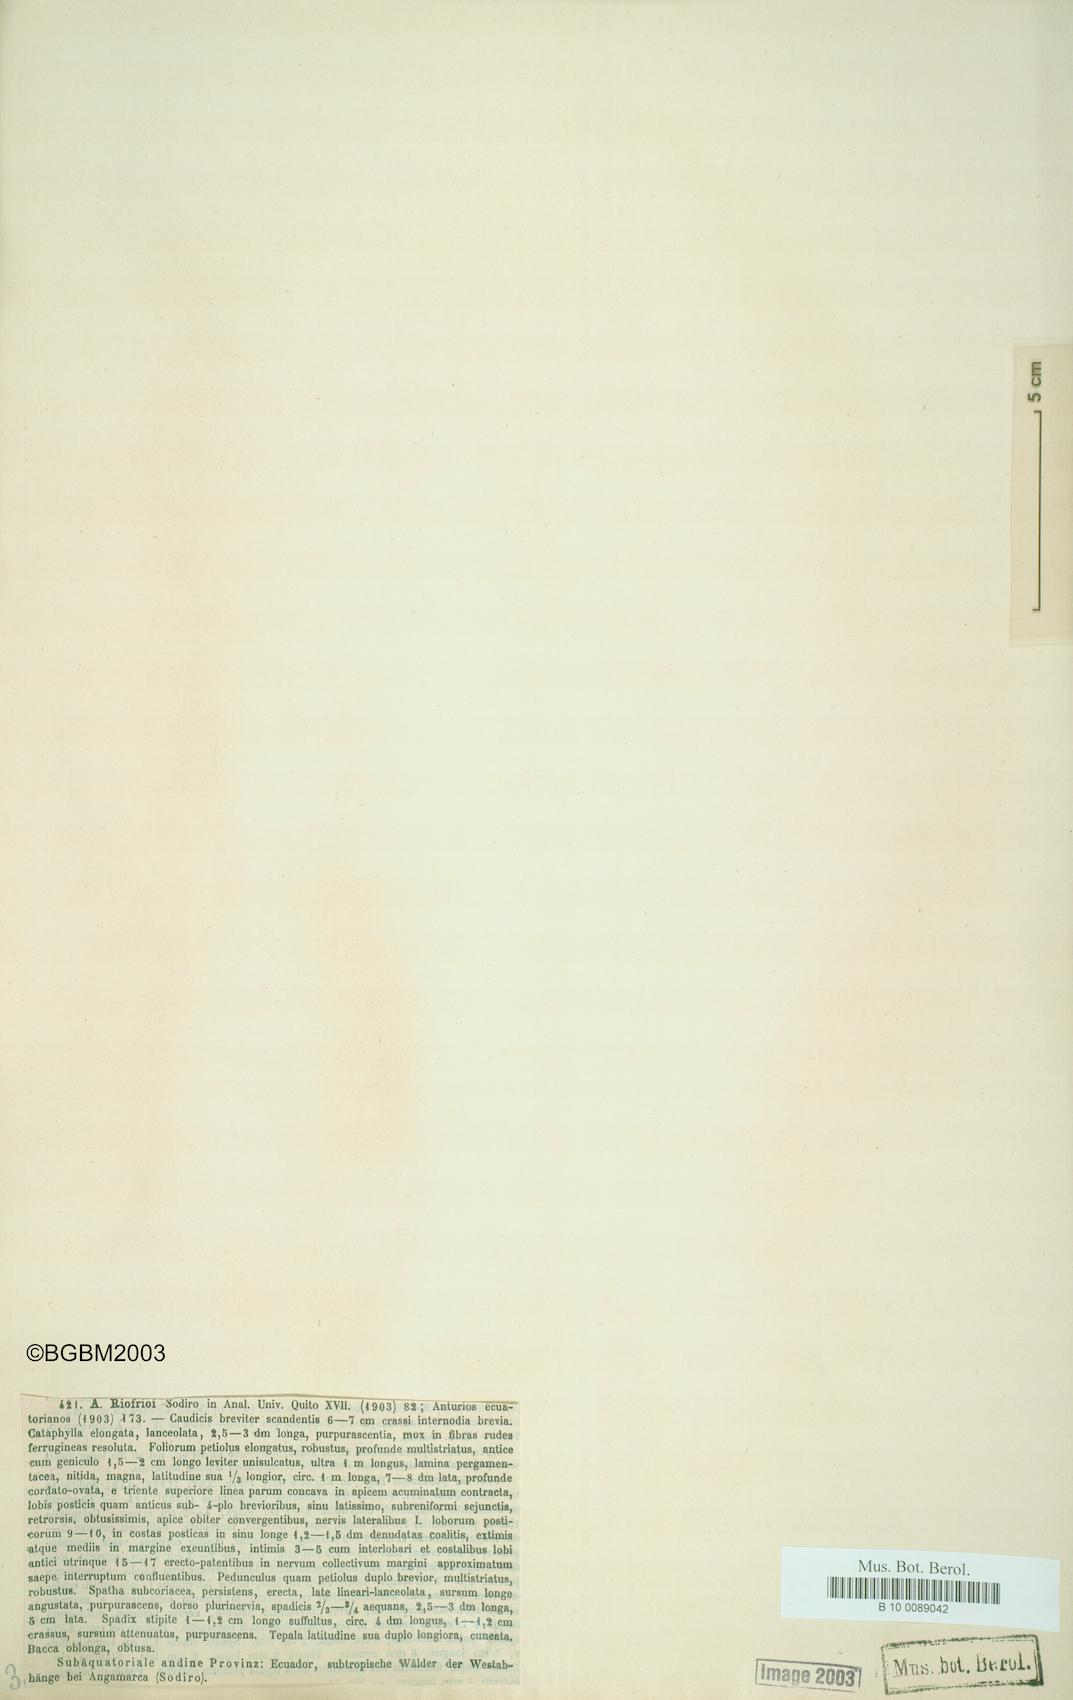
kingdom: Plantae
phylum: Tracheophyta
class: Liliopsida
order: Alismatales
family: Araceae
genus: Anthurium
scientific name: Anthurium riofrioi
